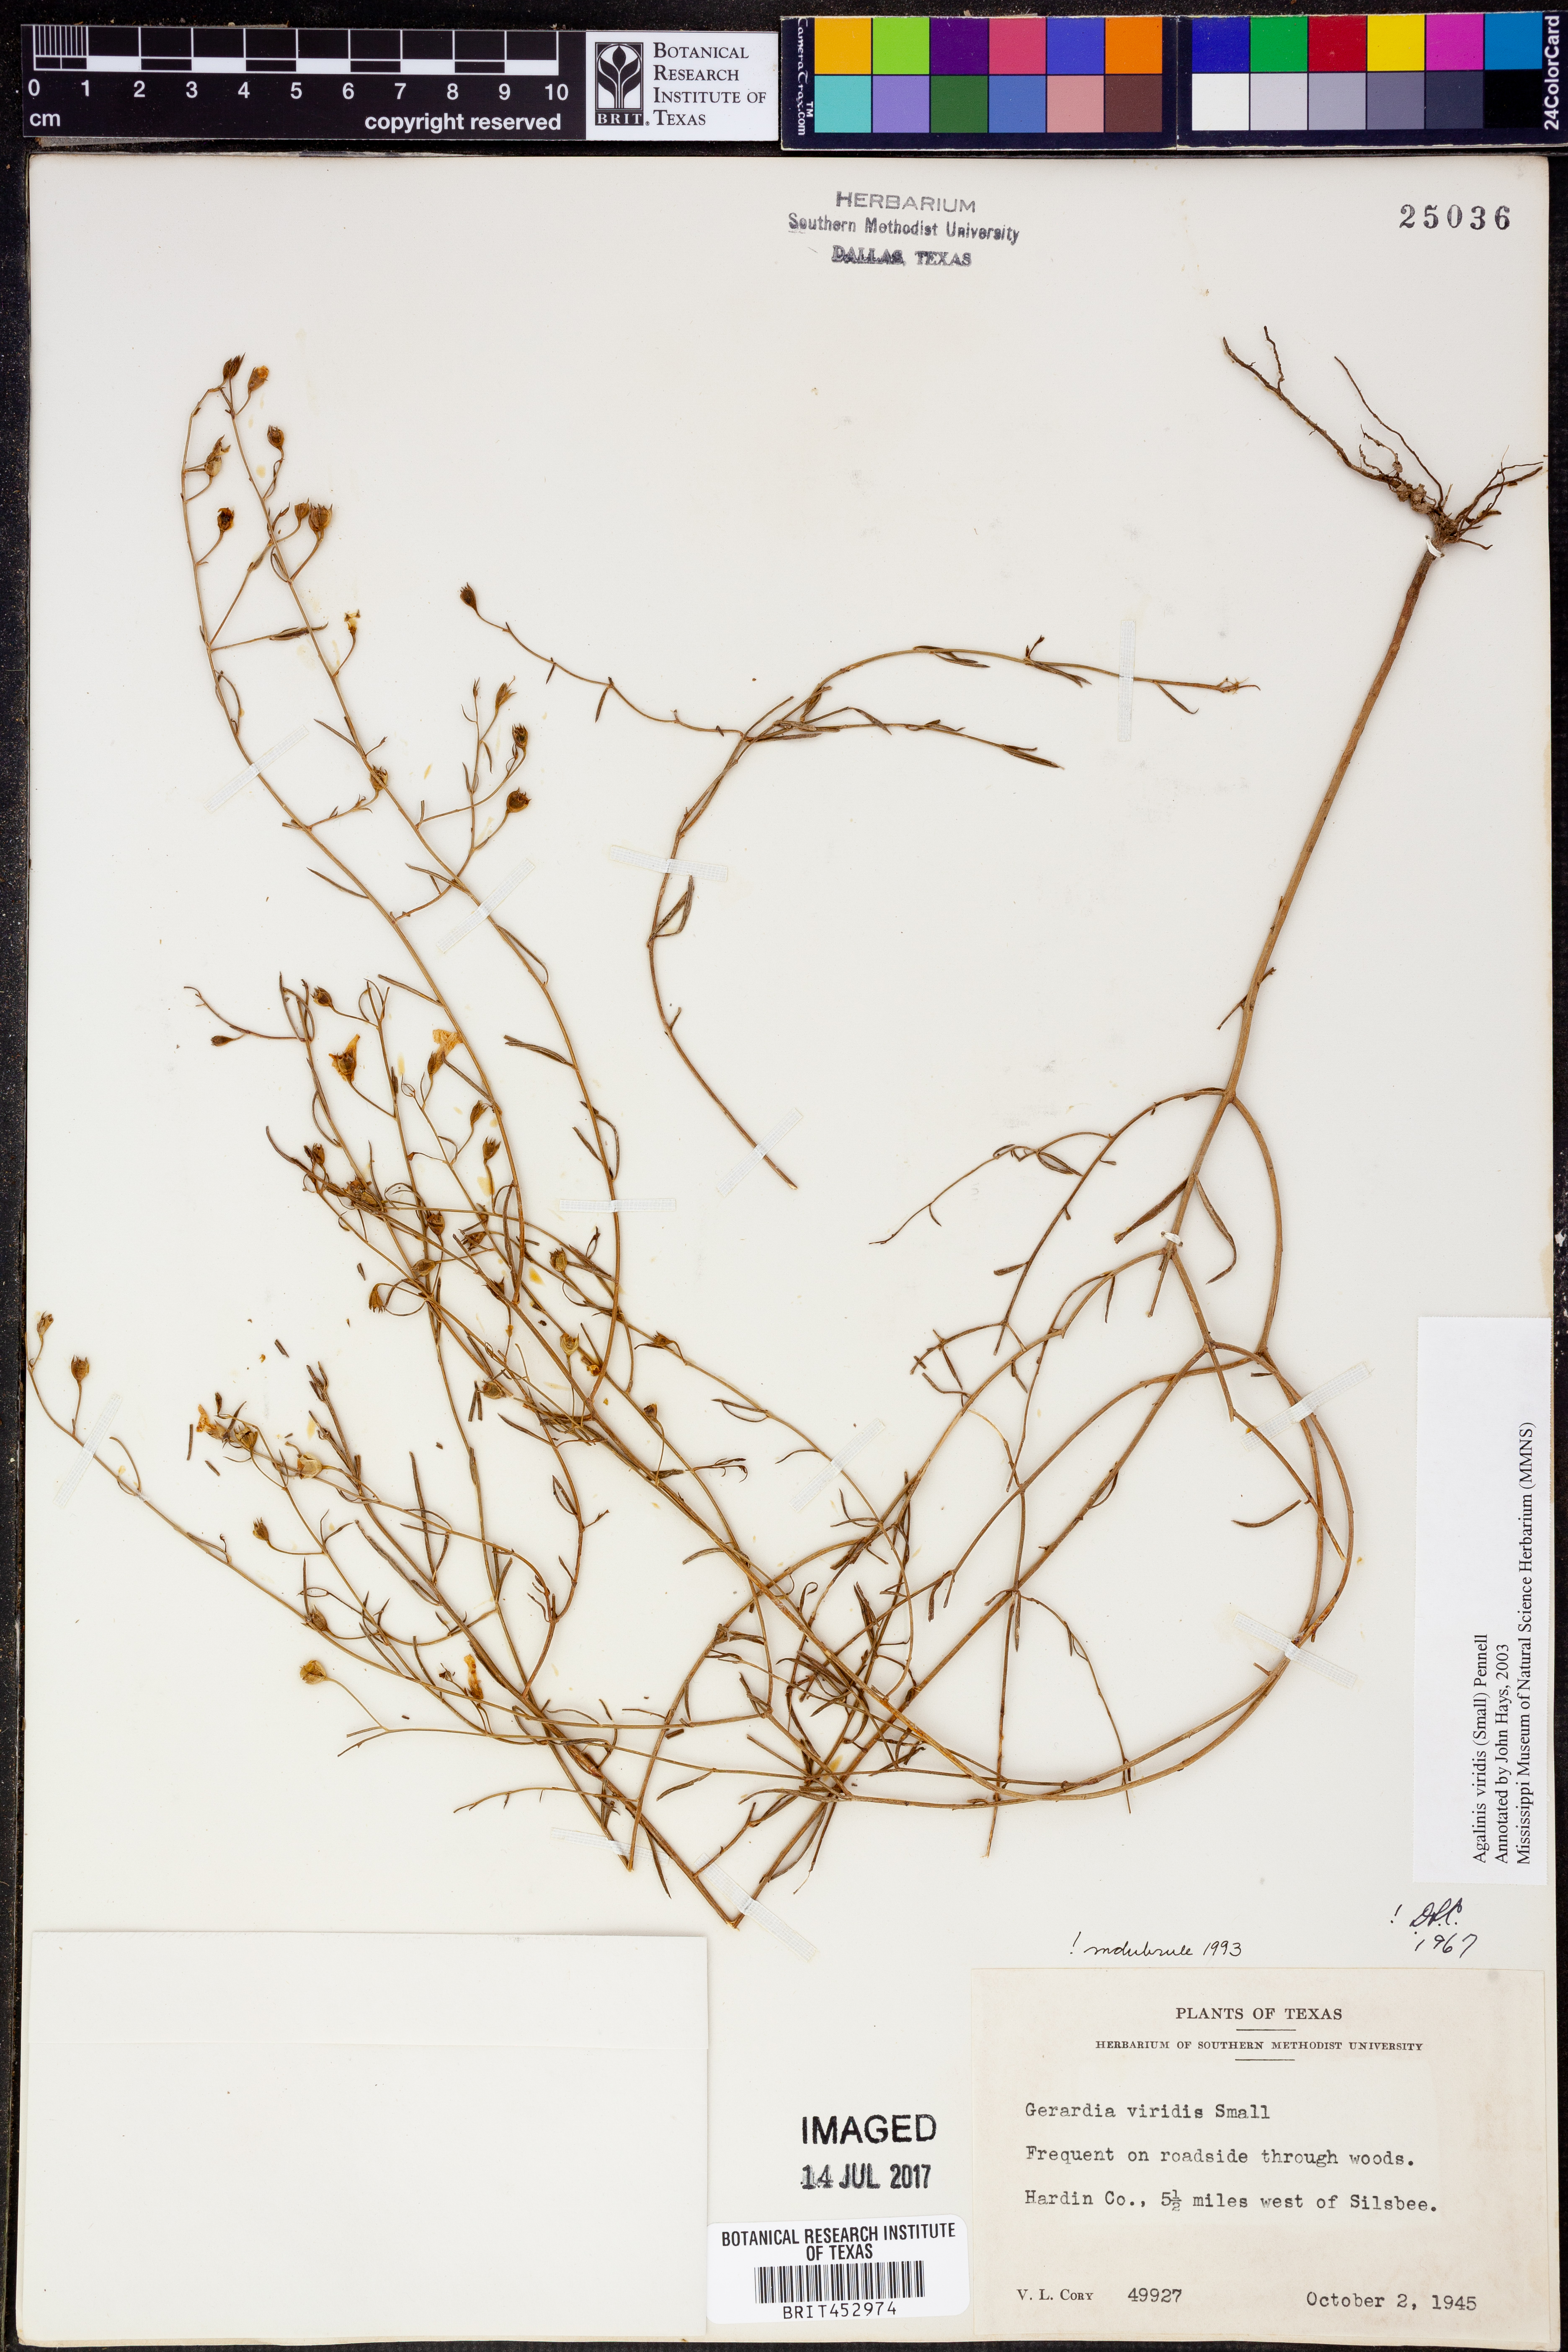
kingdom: Plantae
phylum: Tracheophyta
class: Magnoliopsida
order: Lamiales
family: Orobanchaceae
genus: Agalinis
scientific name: Agalinis viridis
